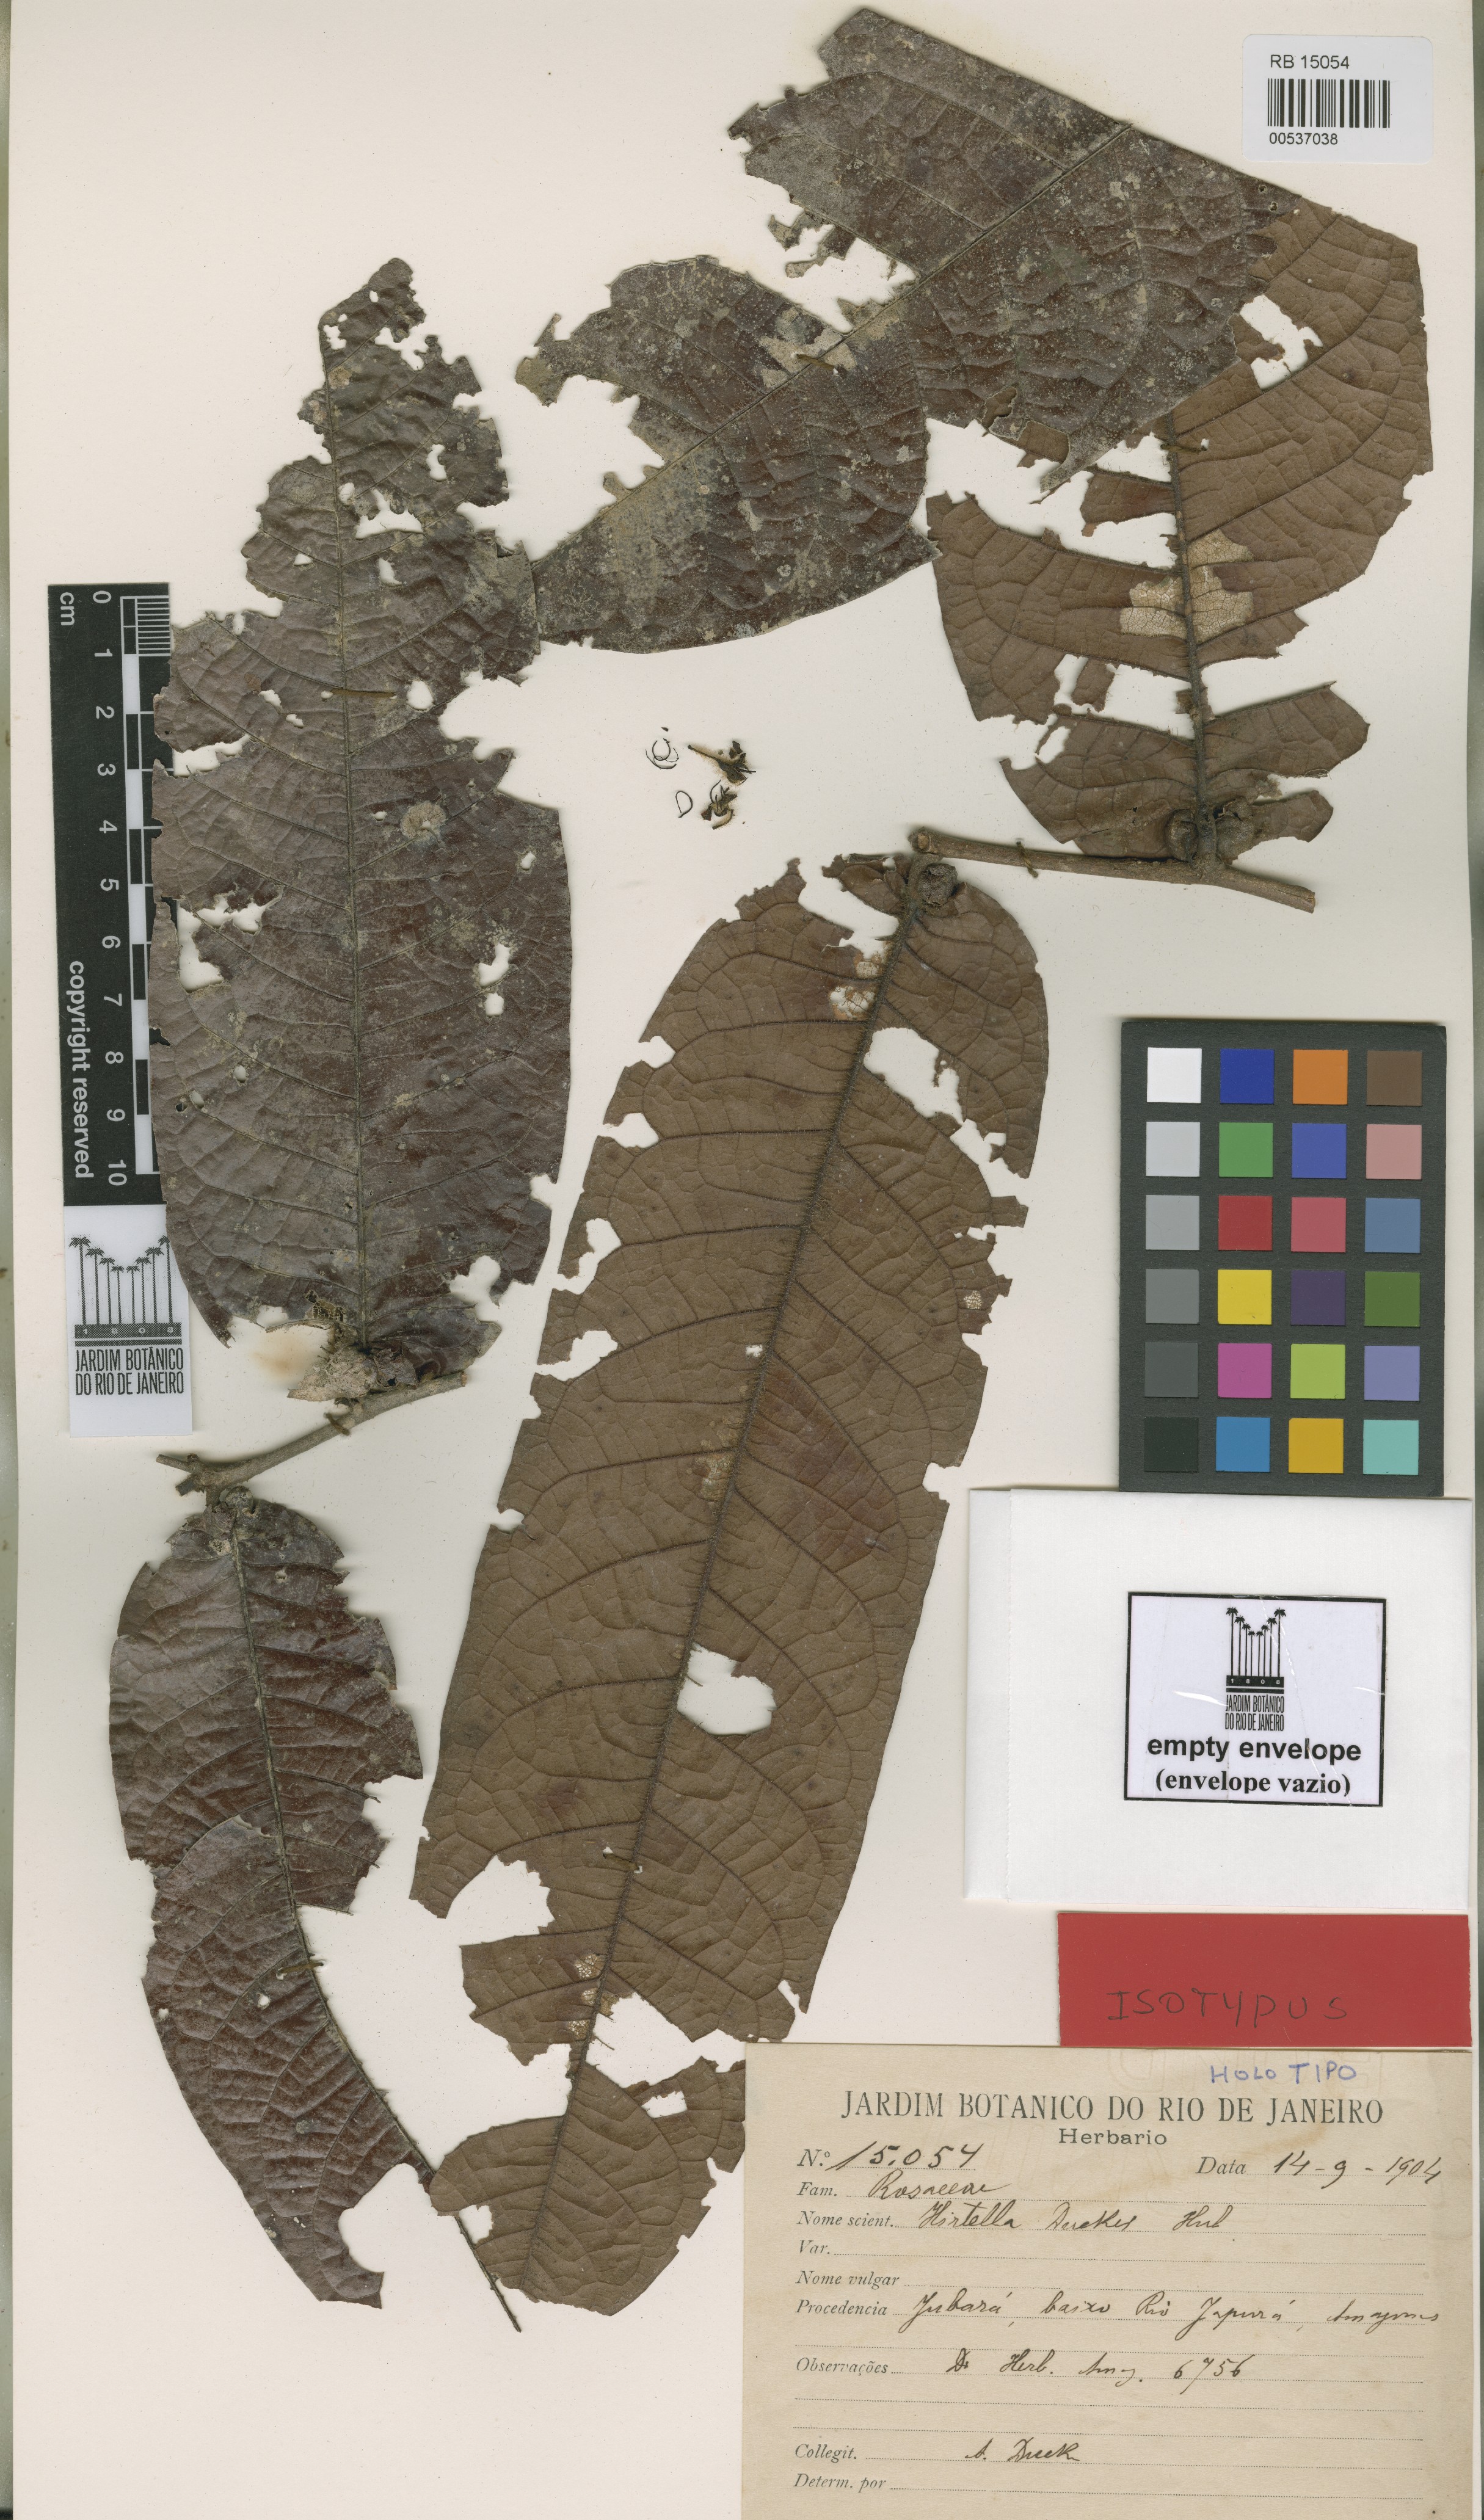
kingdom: Plantae
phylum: Tracheophyta
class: Magnoliopsida
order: Malpighiales
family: Chrysobalanaceae
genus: Hirtella
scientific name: Hirtella duckei
